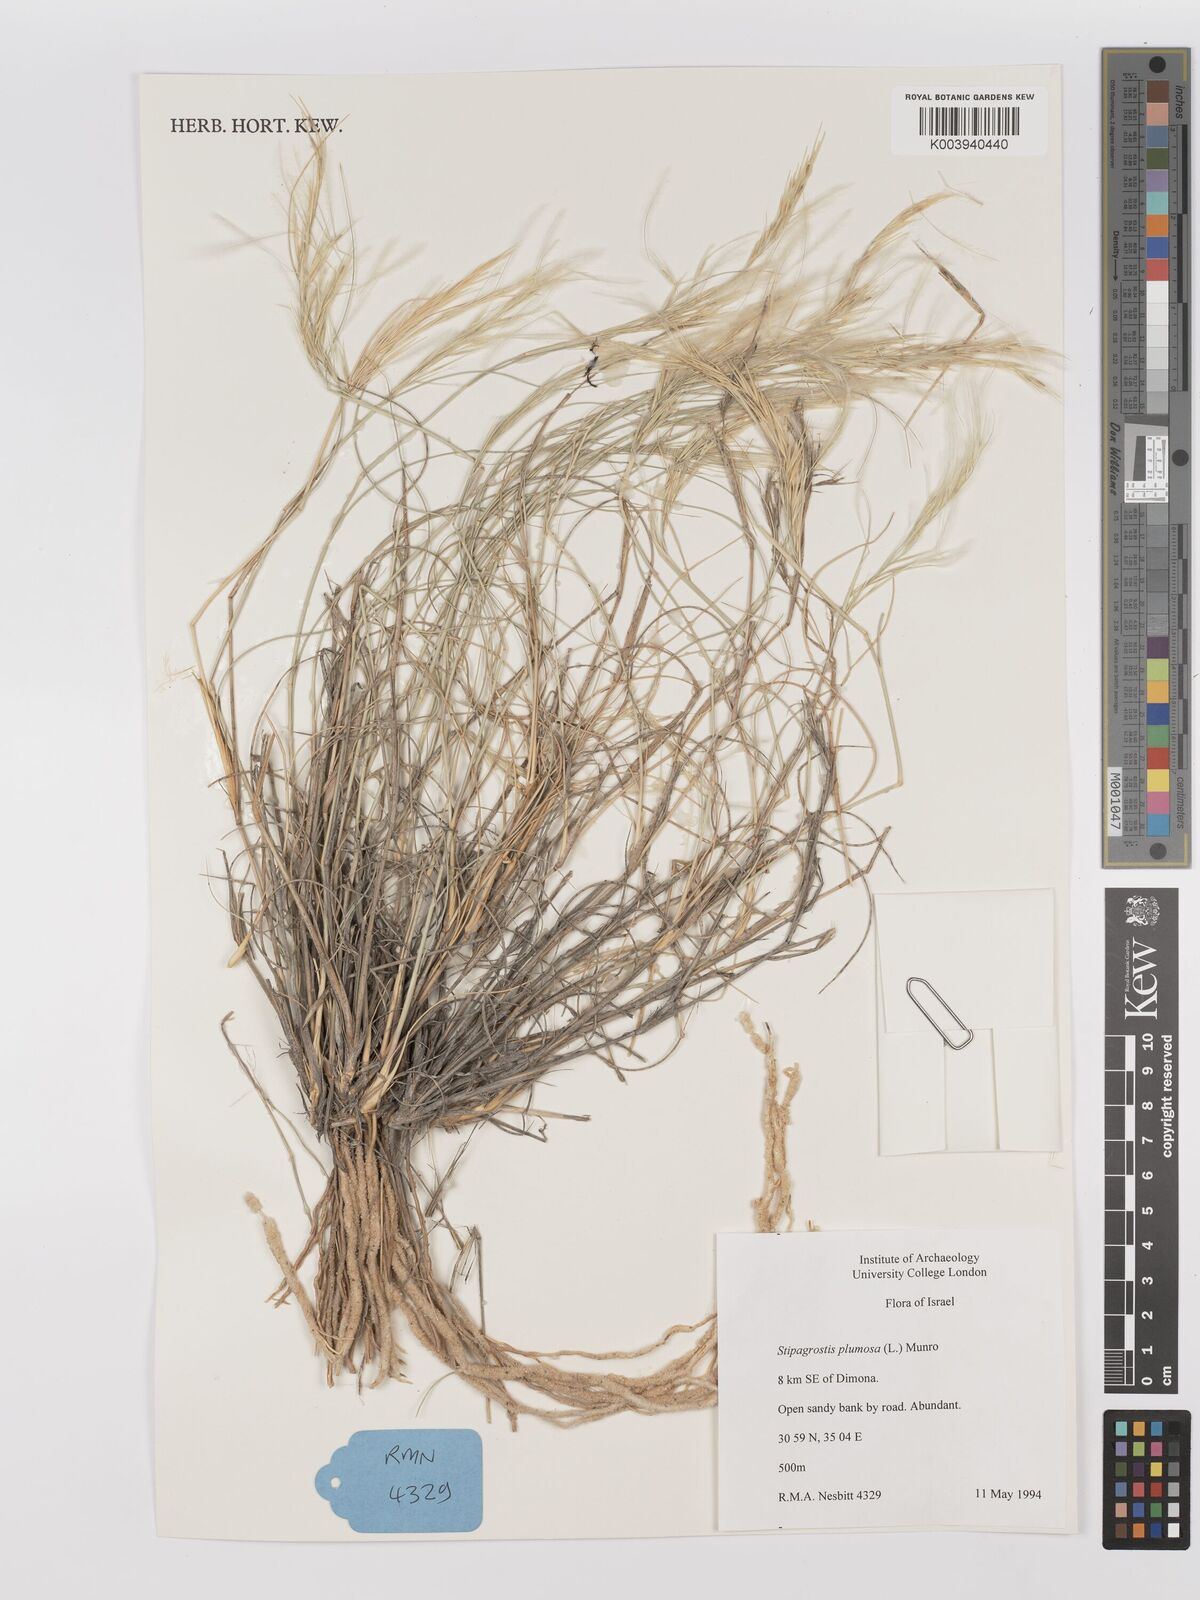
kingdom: Plantae
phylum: Tracheophyta
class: Liliopsida
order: Poales
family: Poaceae
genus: Stipagrostis
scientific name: Stipagrostis plumosa
